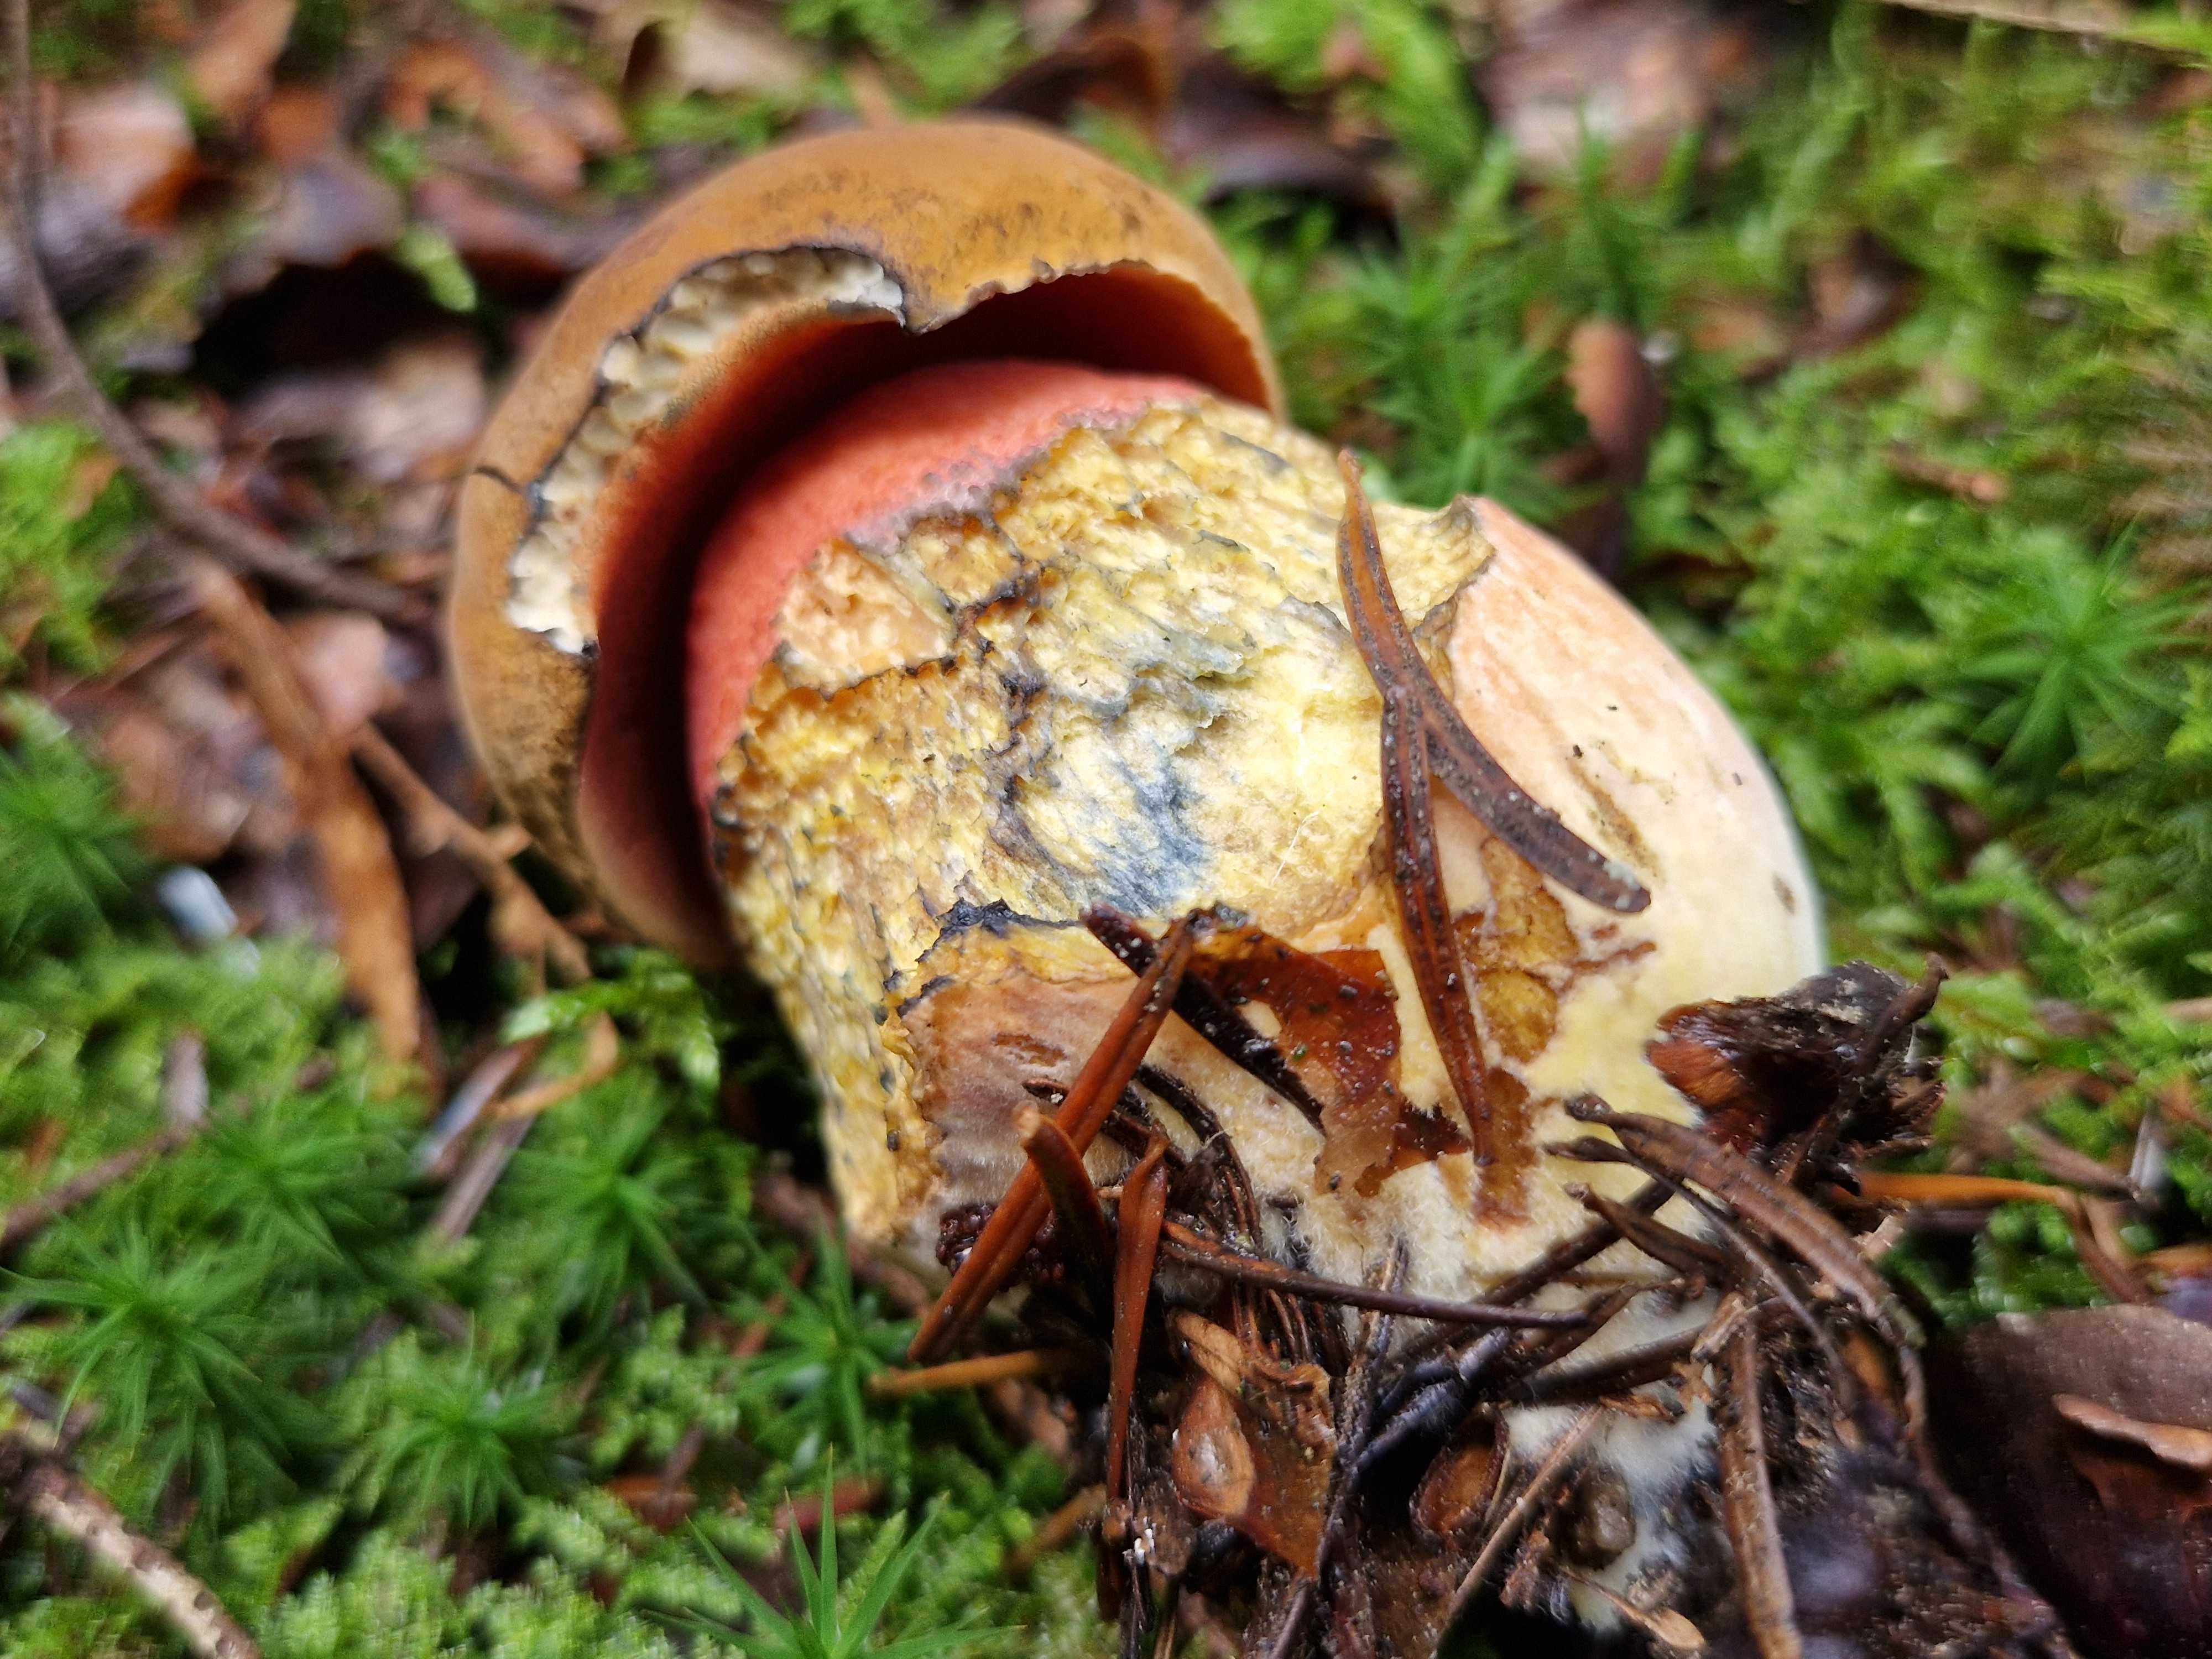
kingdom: Fungi
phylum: Basidiomycota
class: Agaricomycetes
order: Boletales
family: Boletaceae
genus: Neoboletus
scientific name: Neoboletus erythropus
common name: punktstokket indigorørhat
